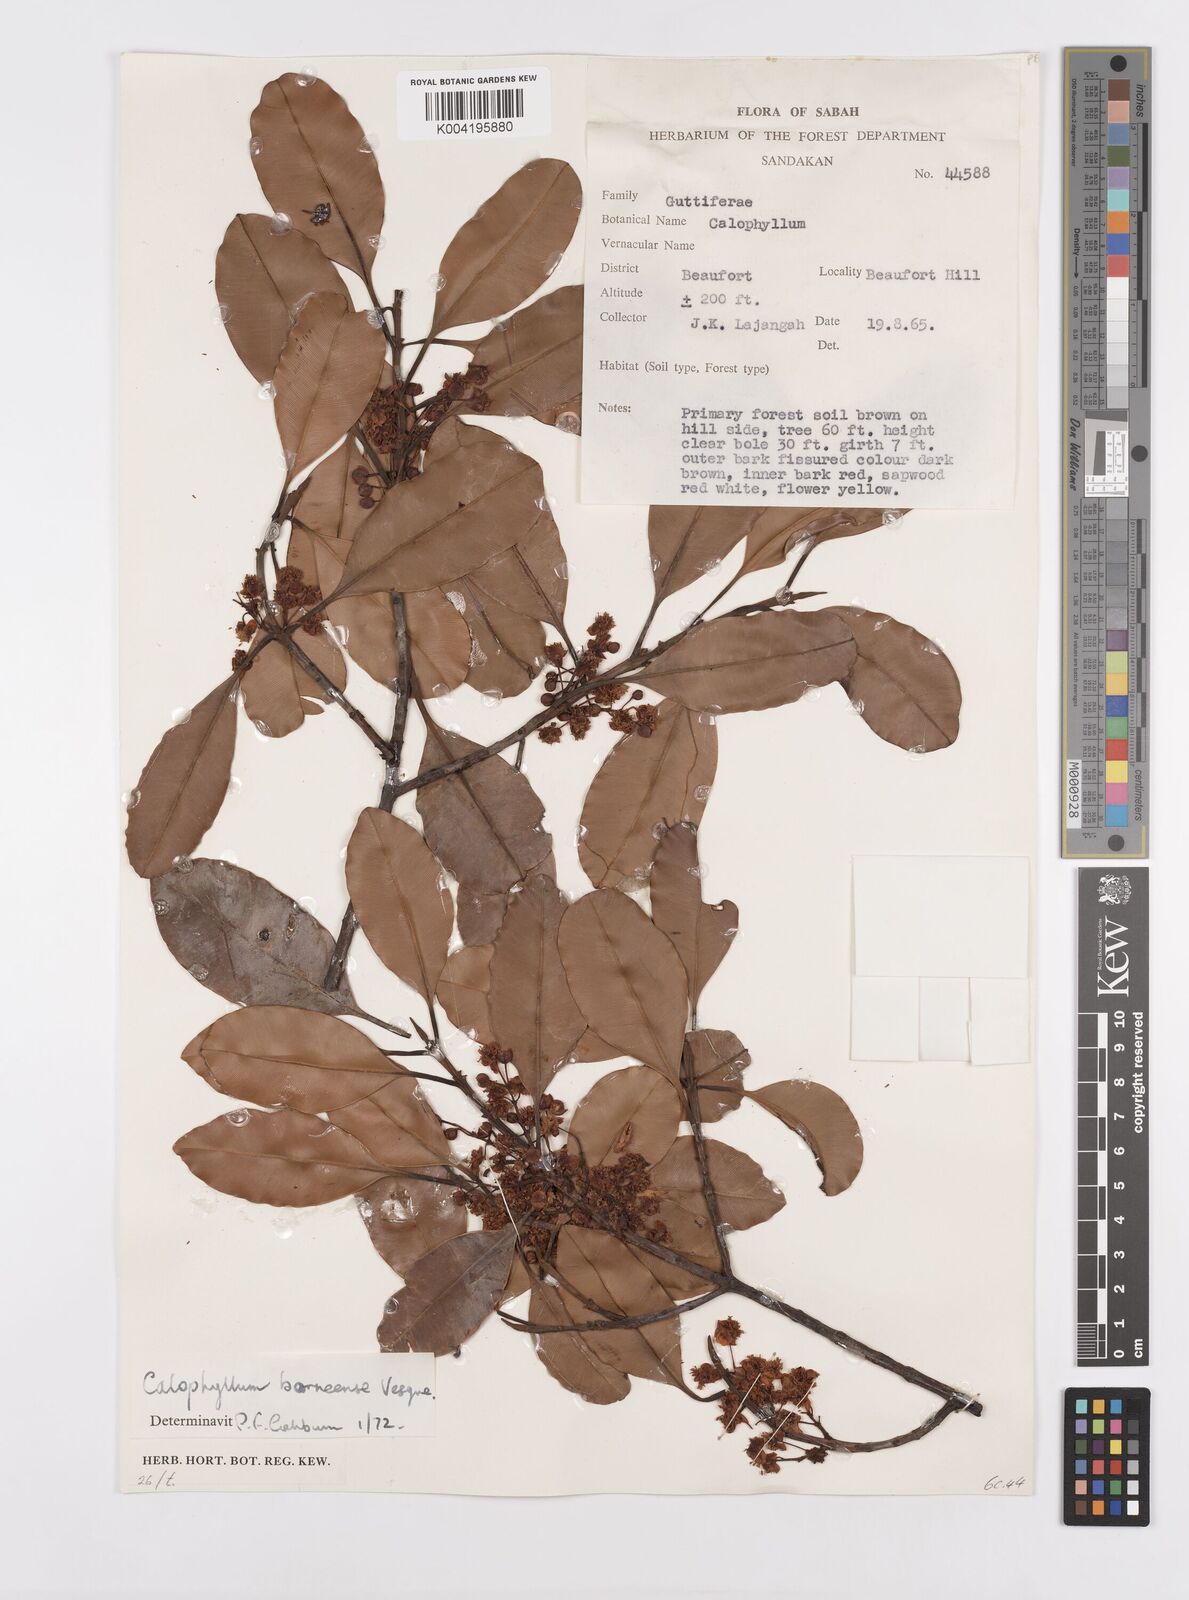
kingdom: Plantae
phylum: Tracheophyta
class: Magnoliopsida
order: Malpighiales
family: Calophyllaceae
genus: Calophyllum
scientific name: Calophyllum teysmannii
